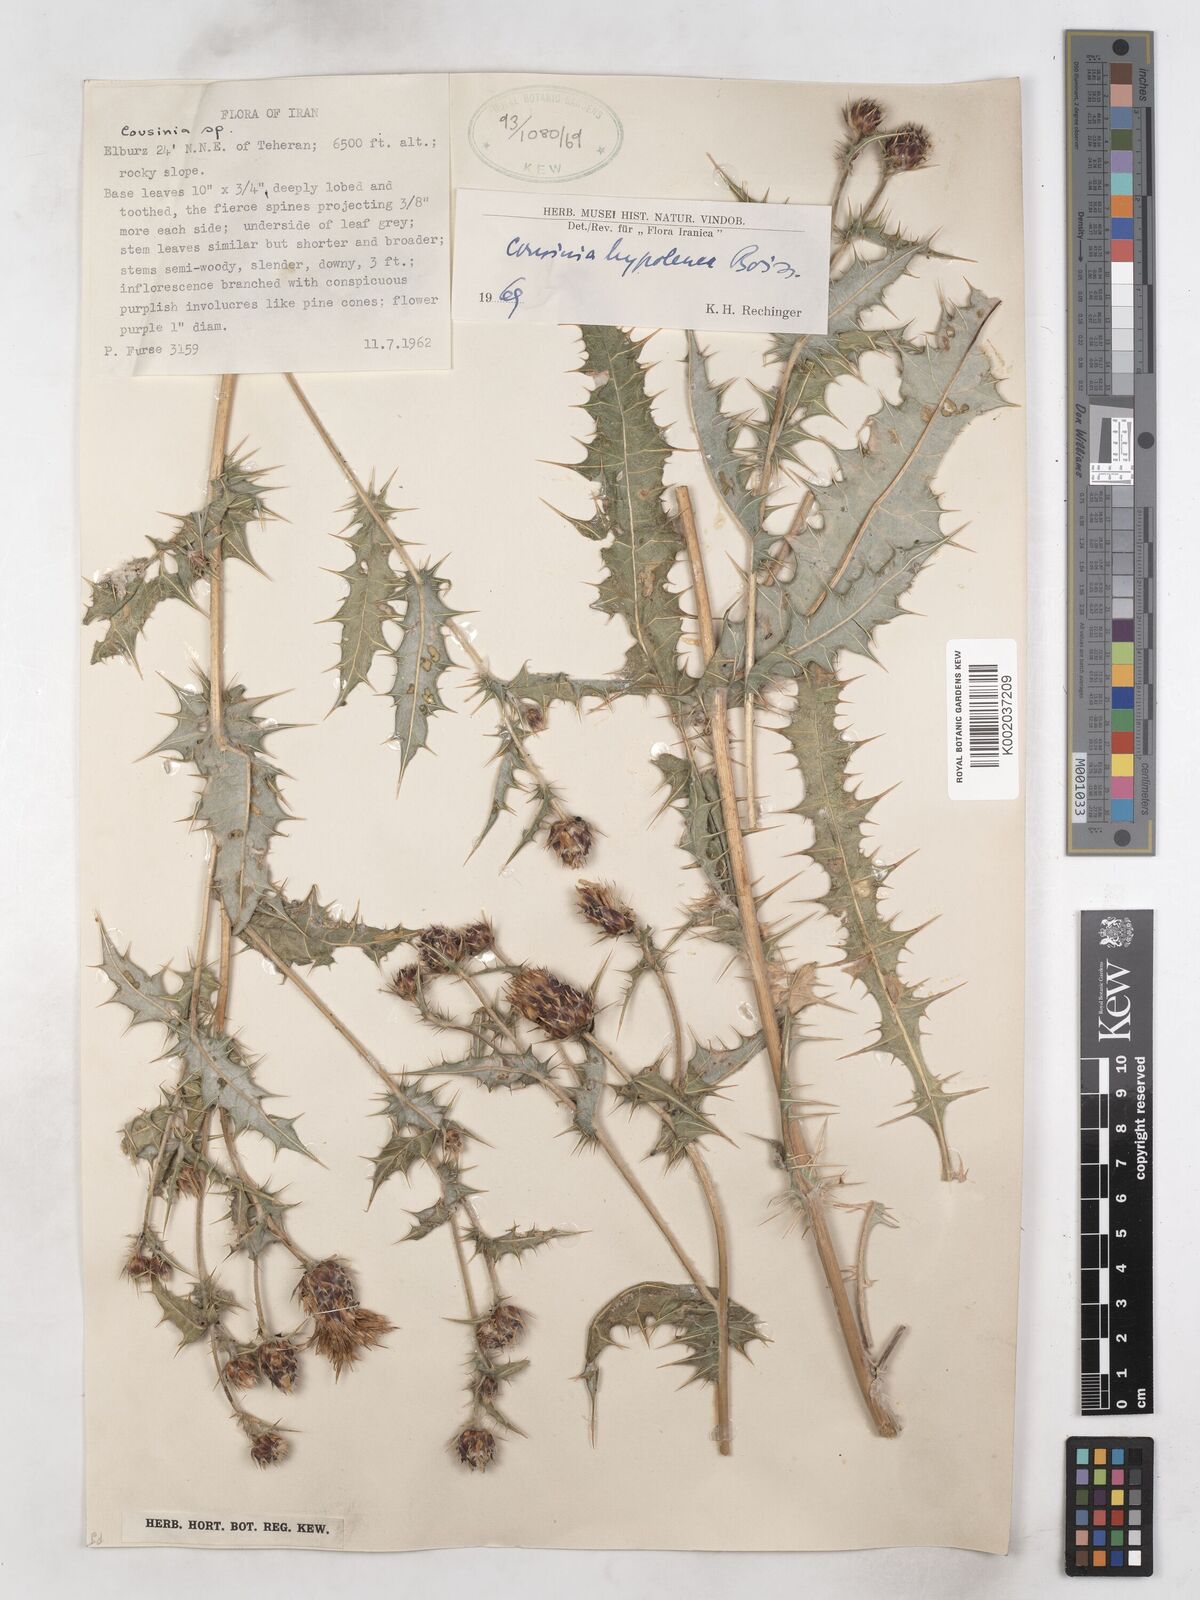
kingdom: Plantae
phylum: Tracheophyta
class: Magnoliopsida
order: Asterales
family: Asteraceae
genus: Cousinia
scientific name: Cousinia hypoleuca
